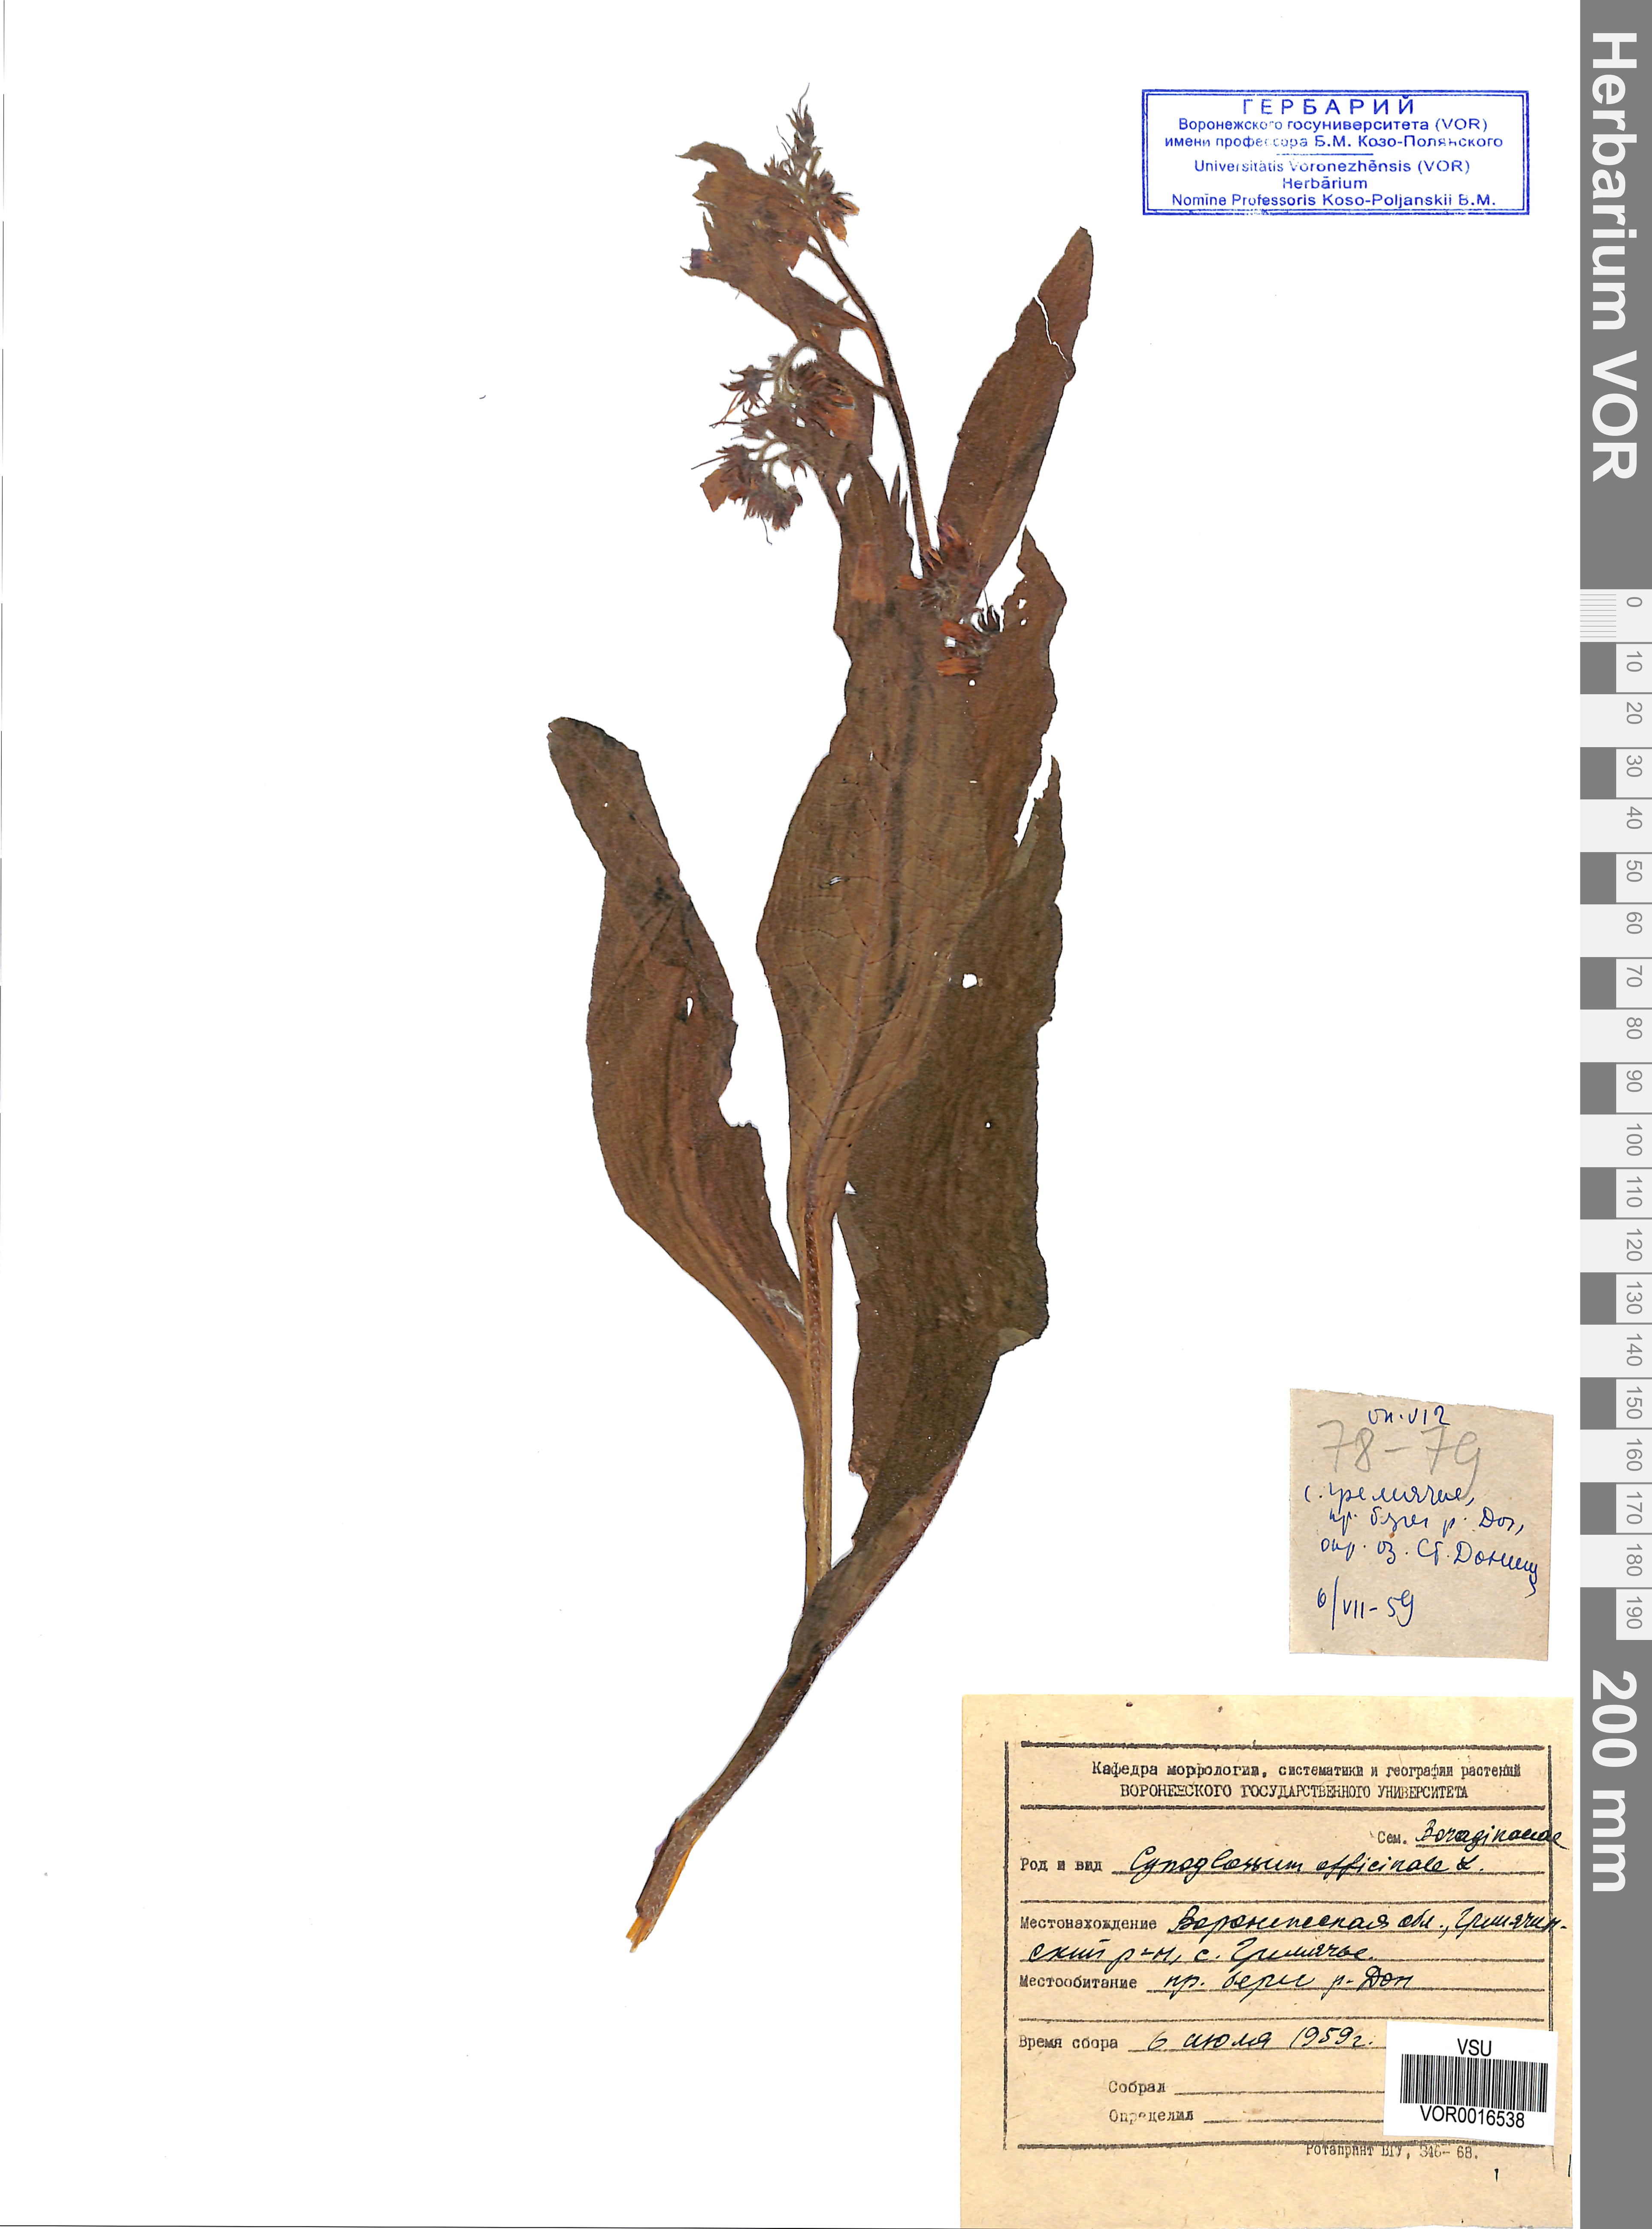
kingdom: Plantae
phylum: Tracheophyta
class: Magnoliopsida
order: Boraginales
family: Boraginaceae
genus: Cynoglossum
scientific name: Cynoglossum officinale
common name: Hound's-tongue
